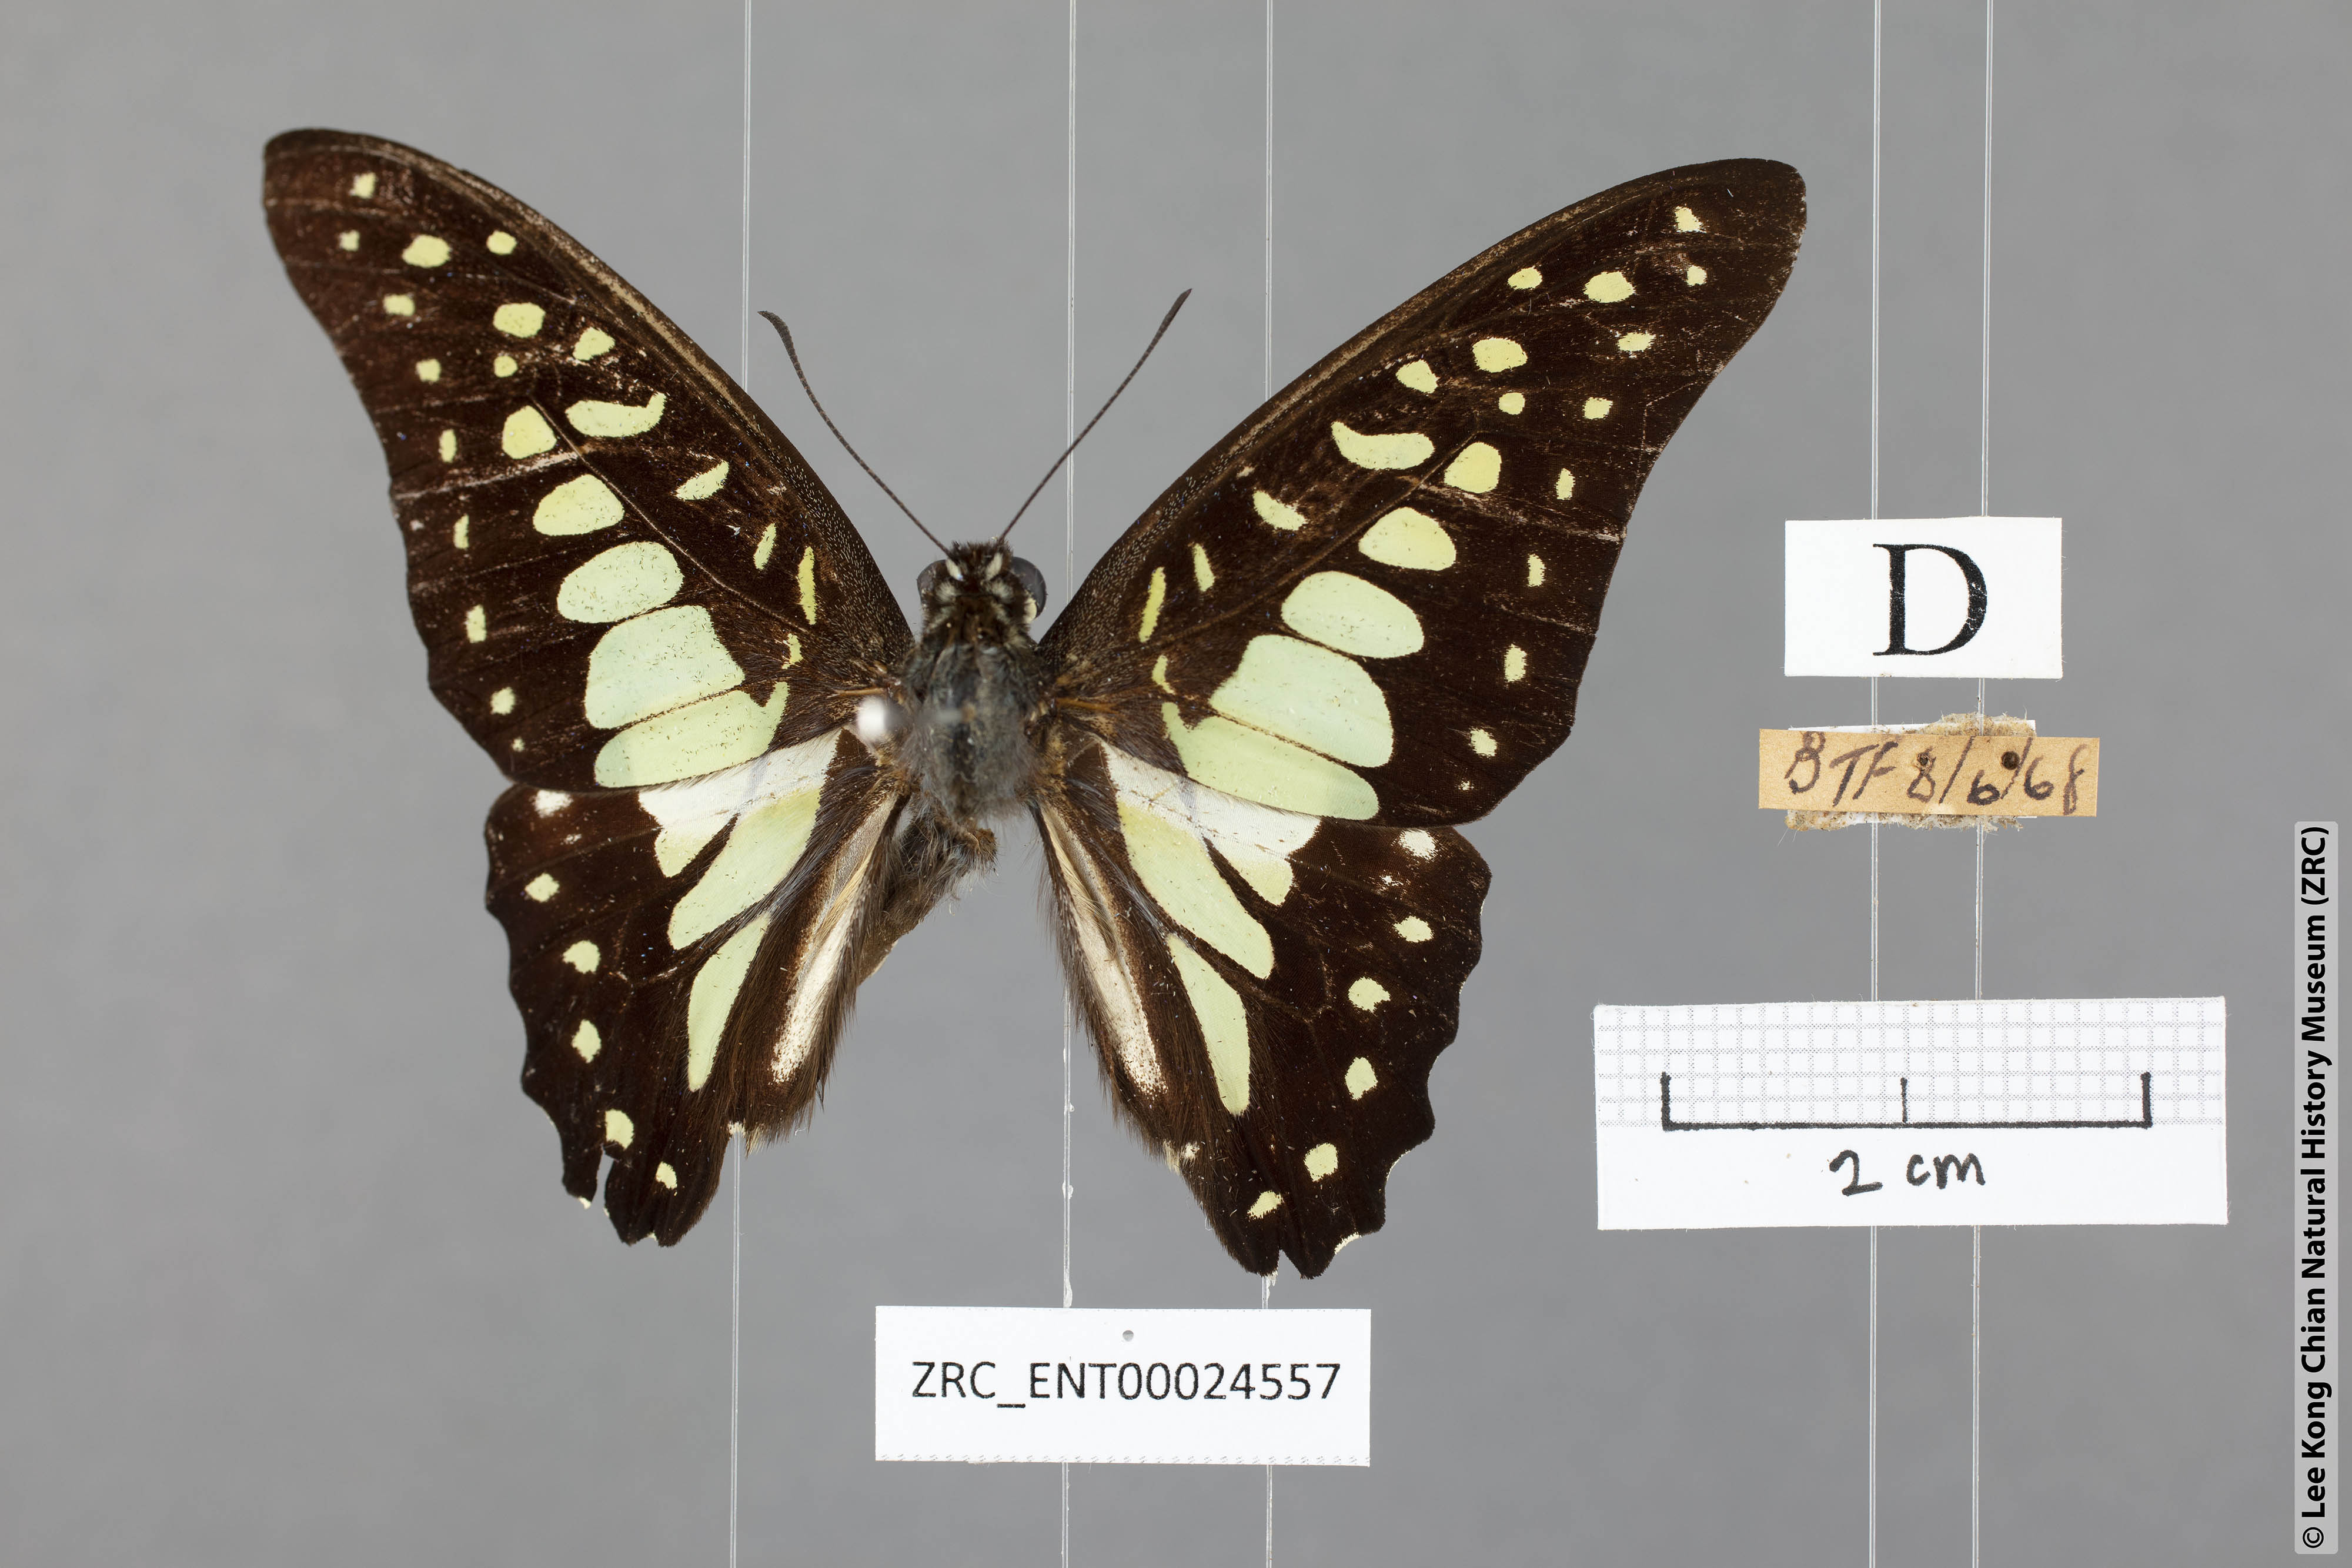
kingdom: Animalia
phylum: Arthropoda
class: Insecta
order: Lepidoptera
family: Papilionidae
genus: Graphium
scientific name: Graphium bathycles
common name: Veined jay
